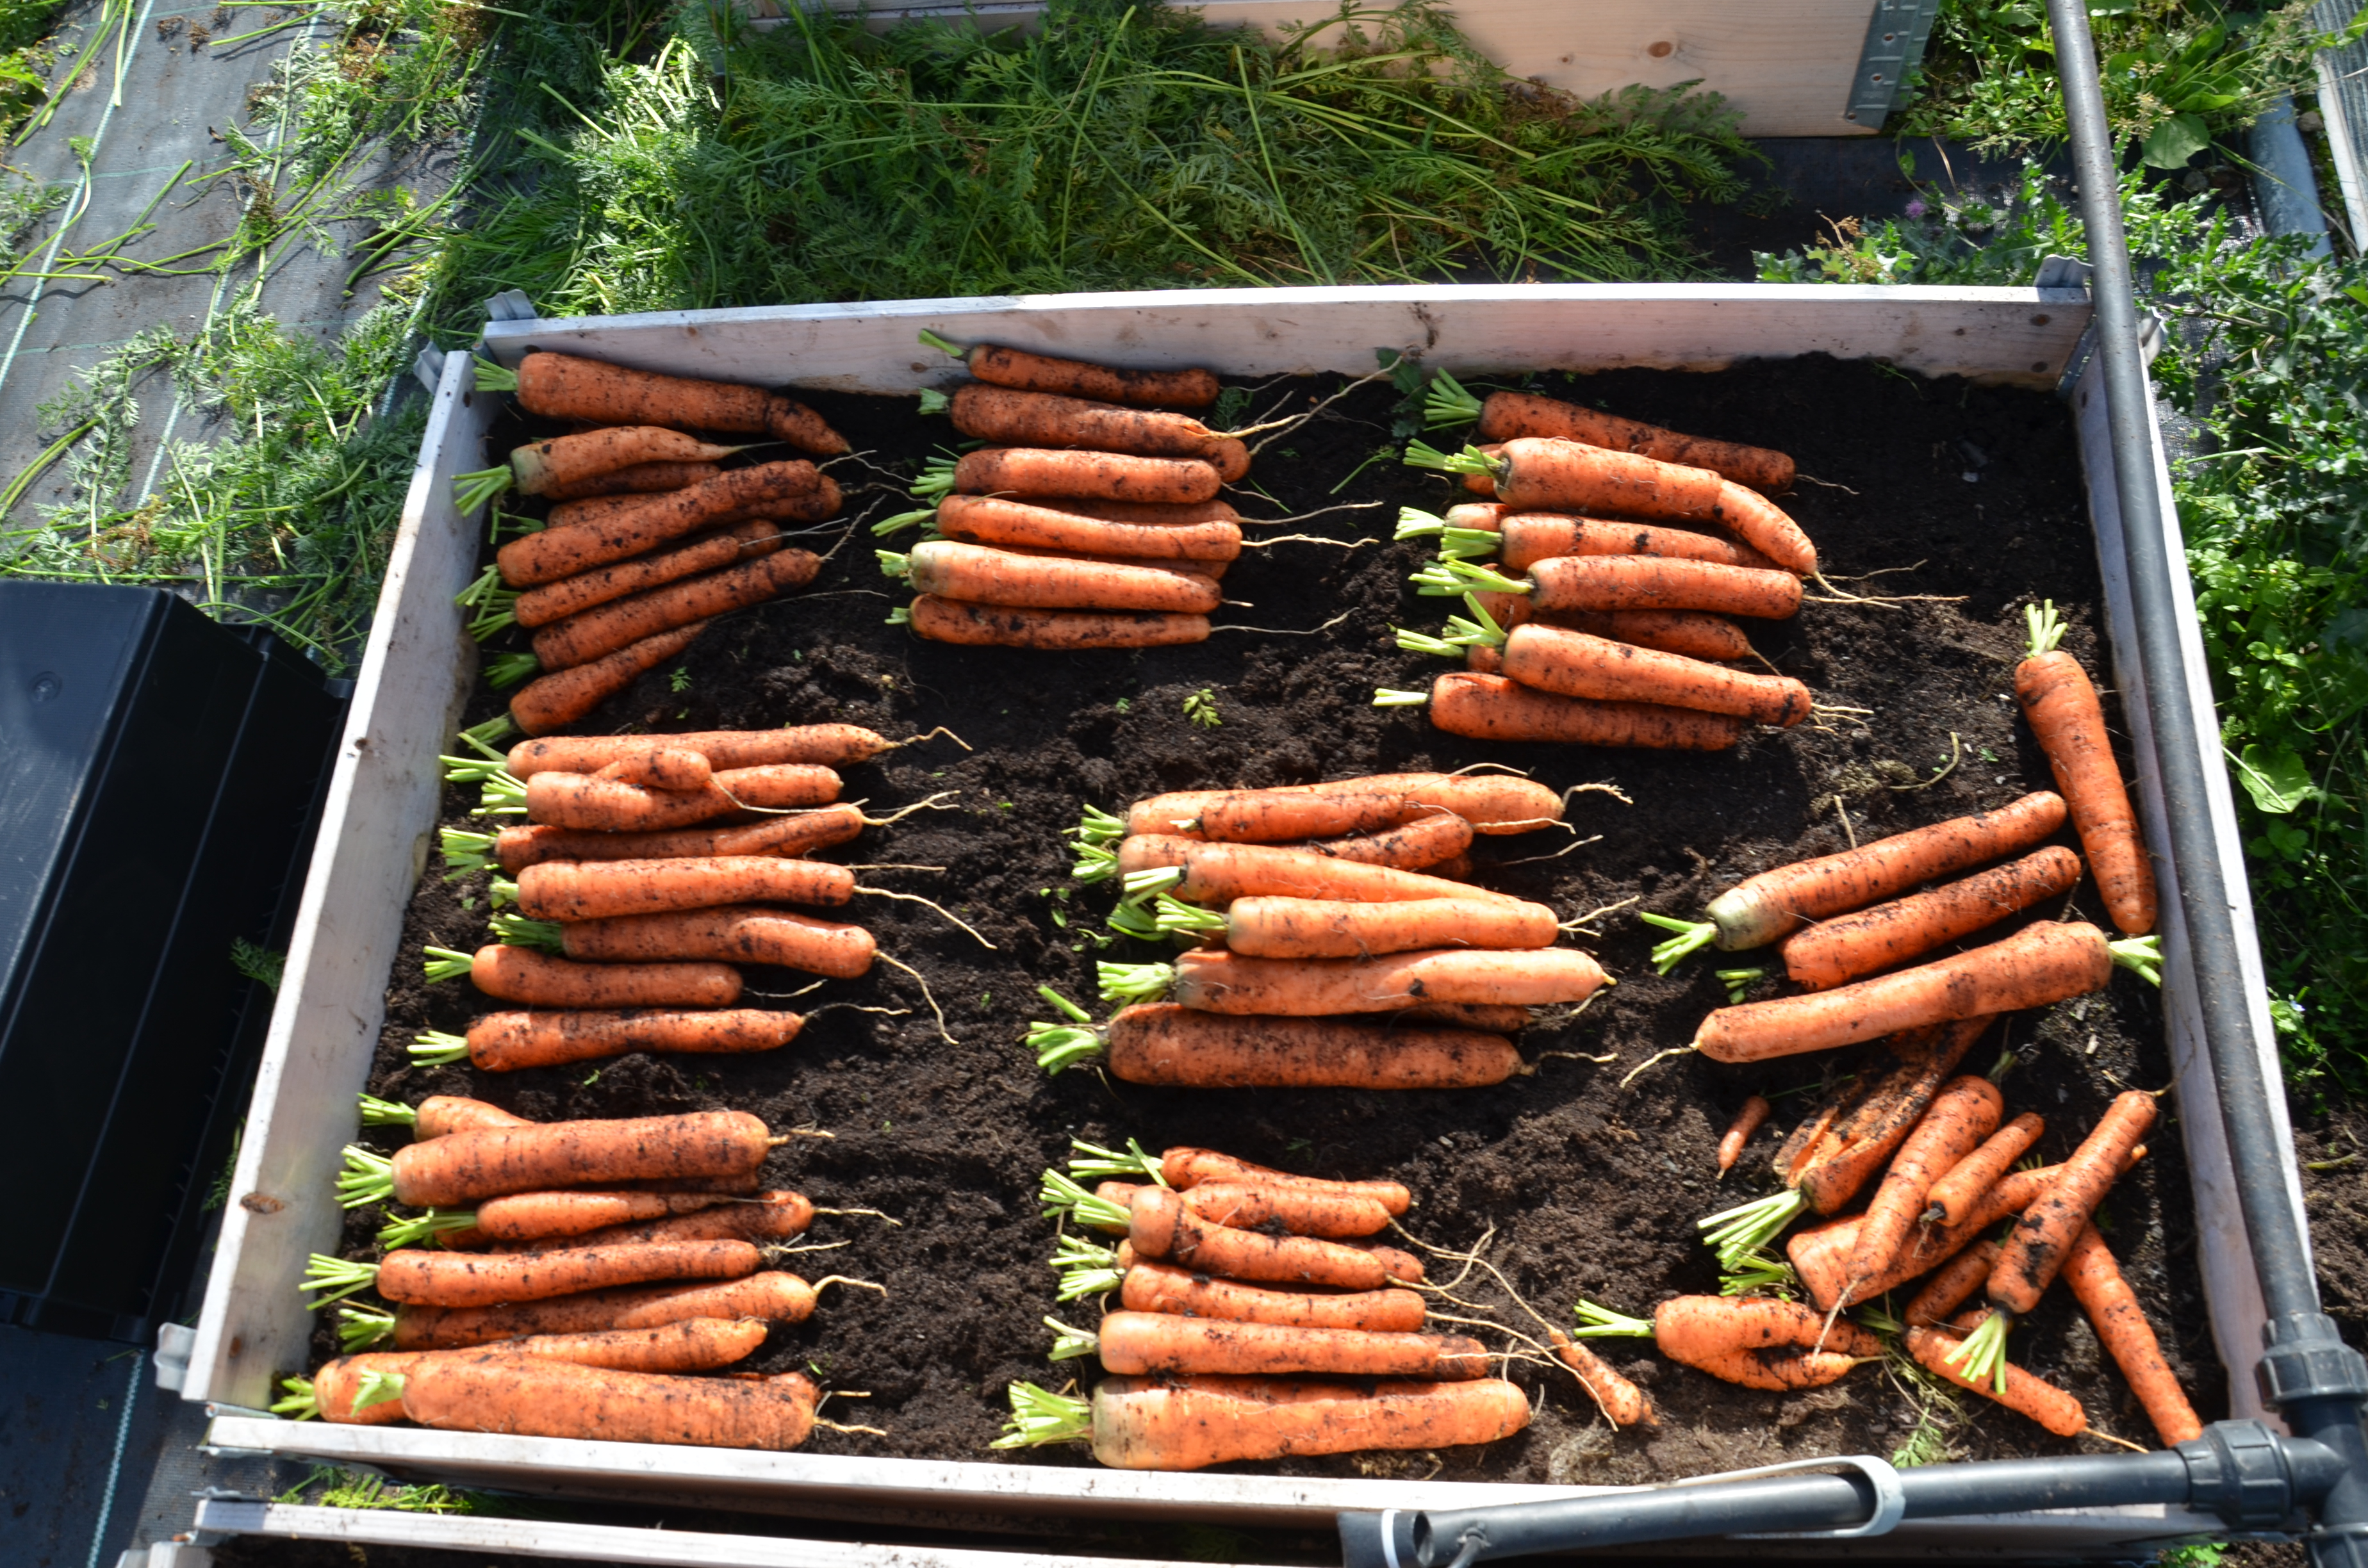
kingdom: Plantae
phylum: Tracheophyta
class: Magnoliopsida
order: Apiales
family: Apiaceae
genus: Daucus
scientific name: Daucus carota
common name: Wild carrot
